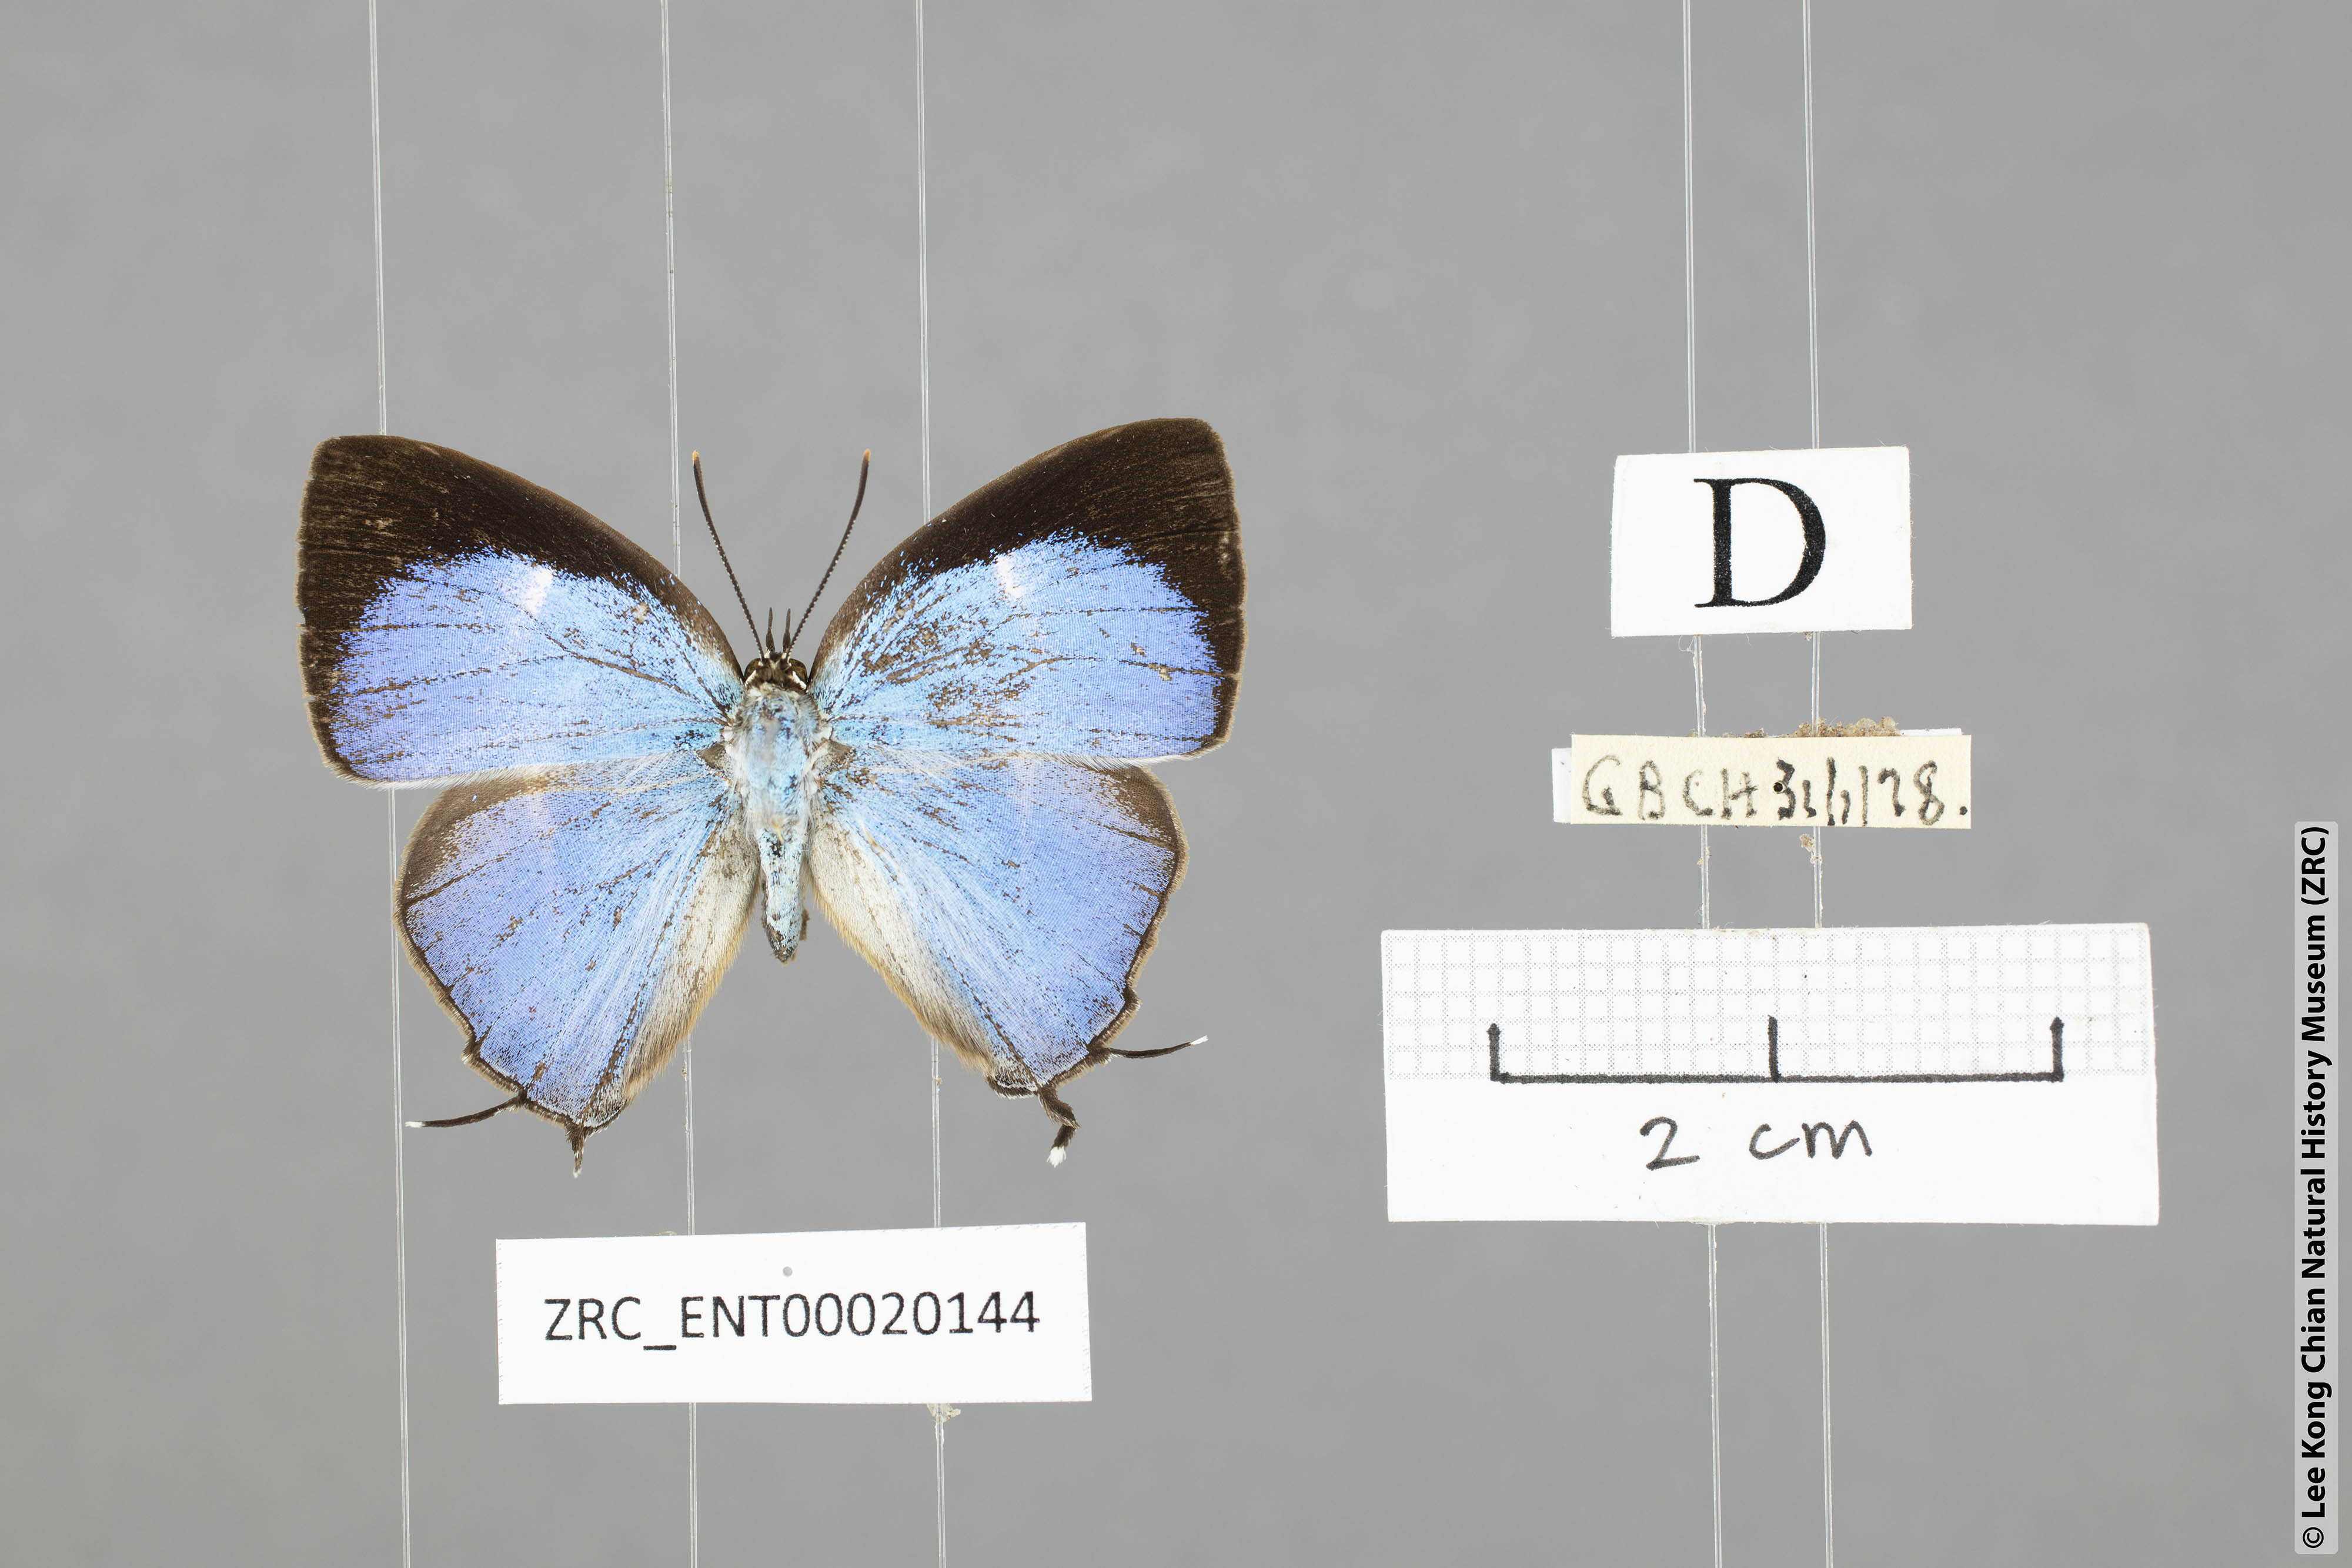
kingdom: Animalia
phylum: Arthropoda
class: Insecta
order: Lepidoptera
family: Lycaenidae
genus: Dacalana
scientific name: Dacalana sinhara
